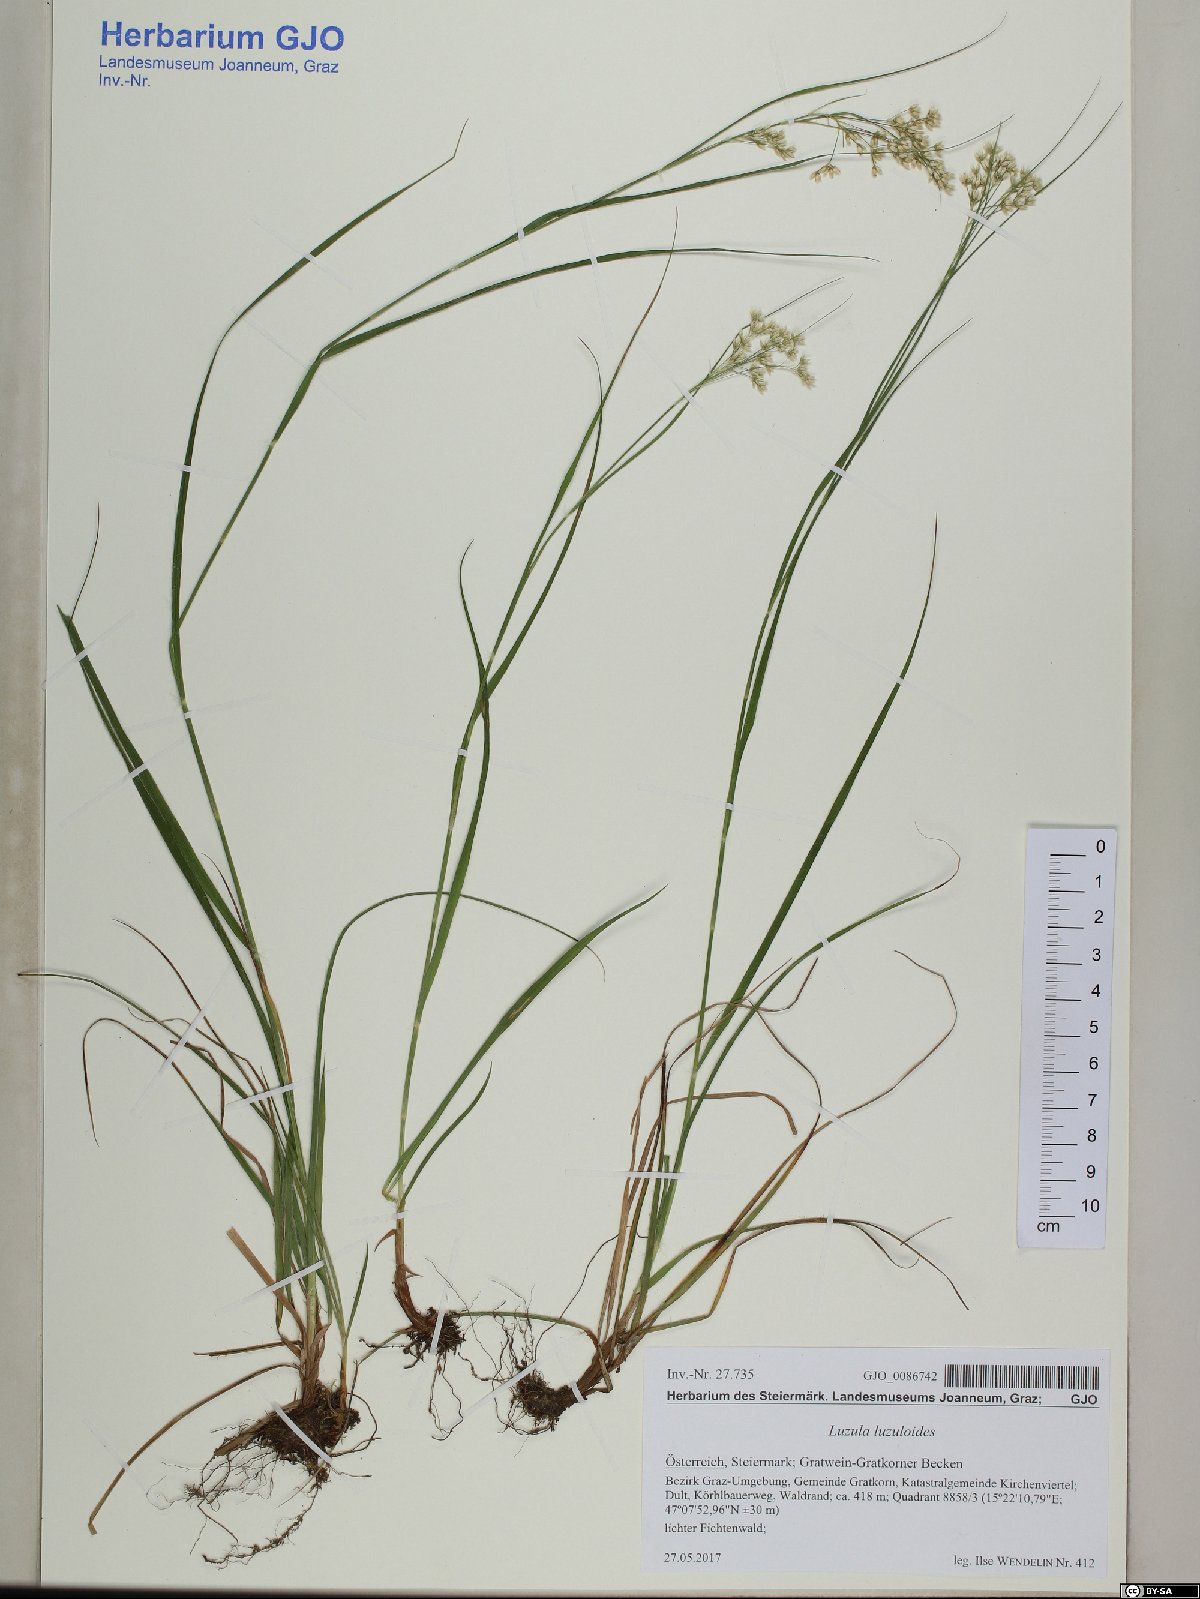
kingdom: Plantae
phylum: Tracheophyta
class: Liliopsida
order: Poales
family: Juncaceae
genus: Luzula
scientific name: Luzula luzuloides
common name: White wood-rush
